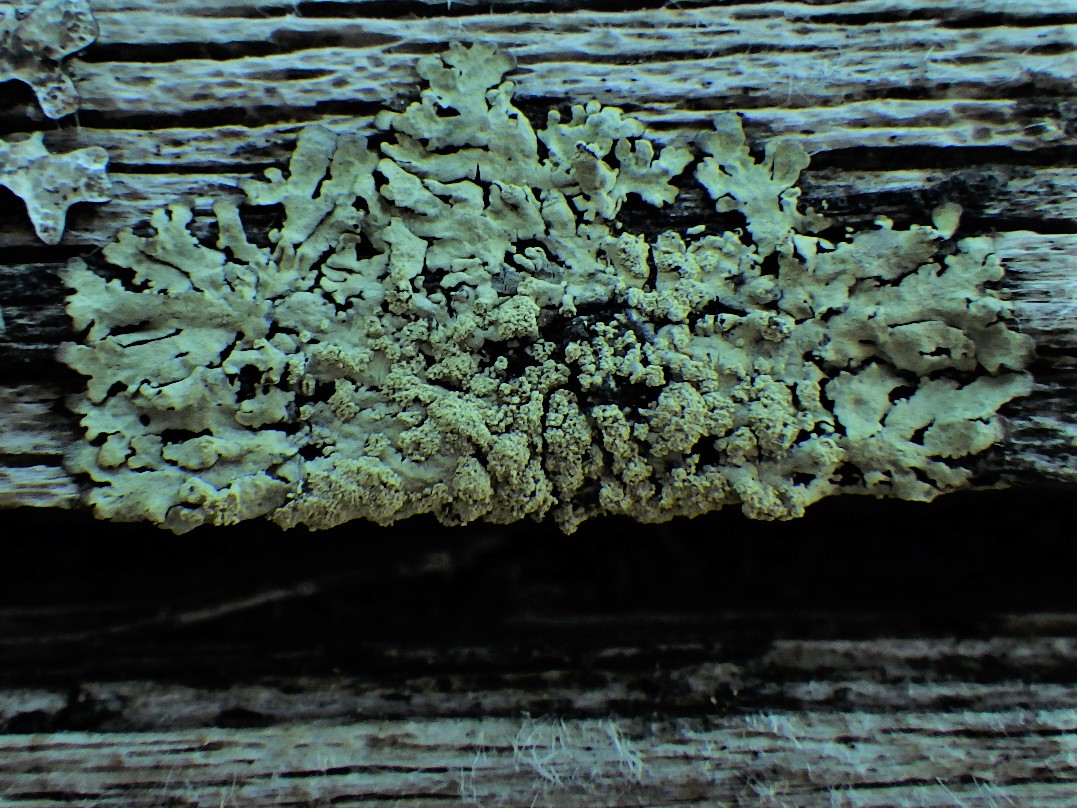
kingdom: Fungi
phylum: Ascomycota
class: Lecanoromycetes
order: Lecanorales
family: Parmeliaceae
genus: Parmeliopsis
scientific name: Parmeliopsis ambigua
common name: gul stolpelav
